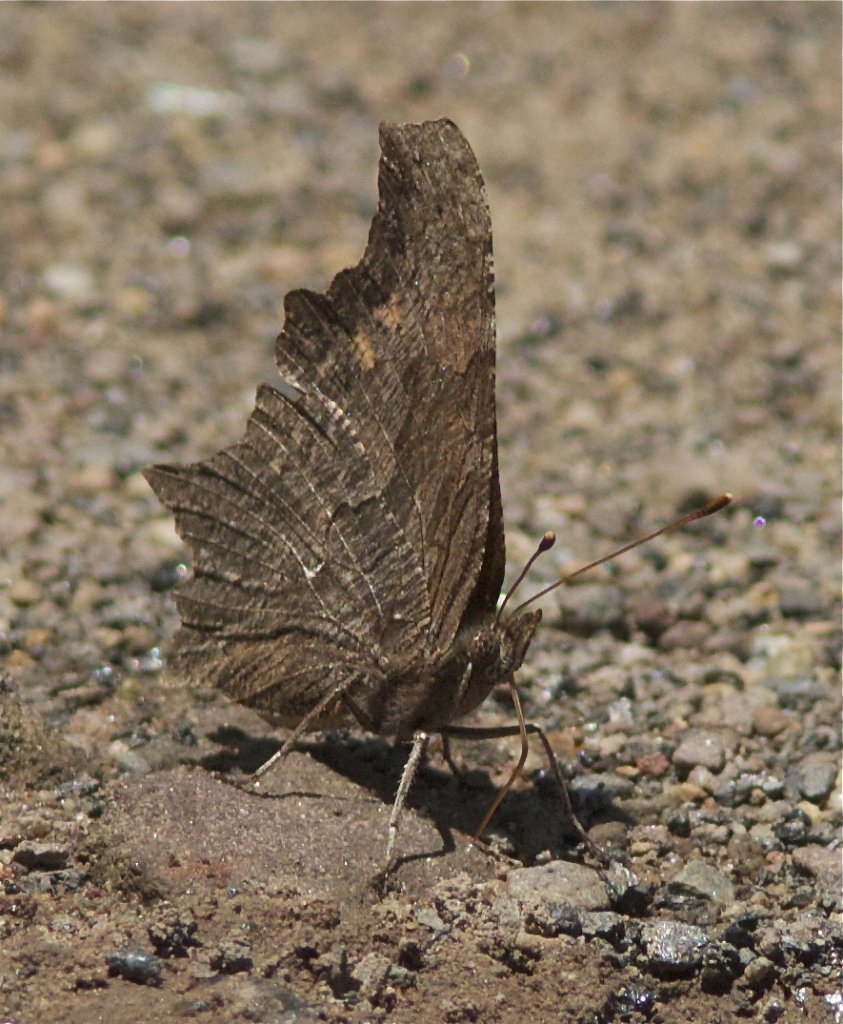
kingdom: Animalia
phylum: Arthropoda
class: Insecta
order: Lepidoptera
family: Nymphalidae
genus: Polygonia
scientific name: Polygonia progne
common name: Gray Comma
